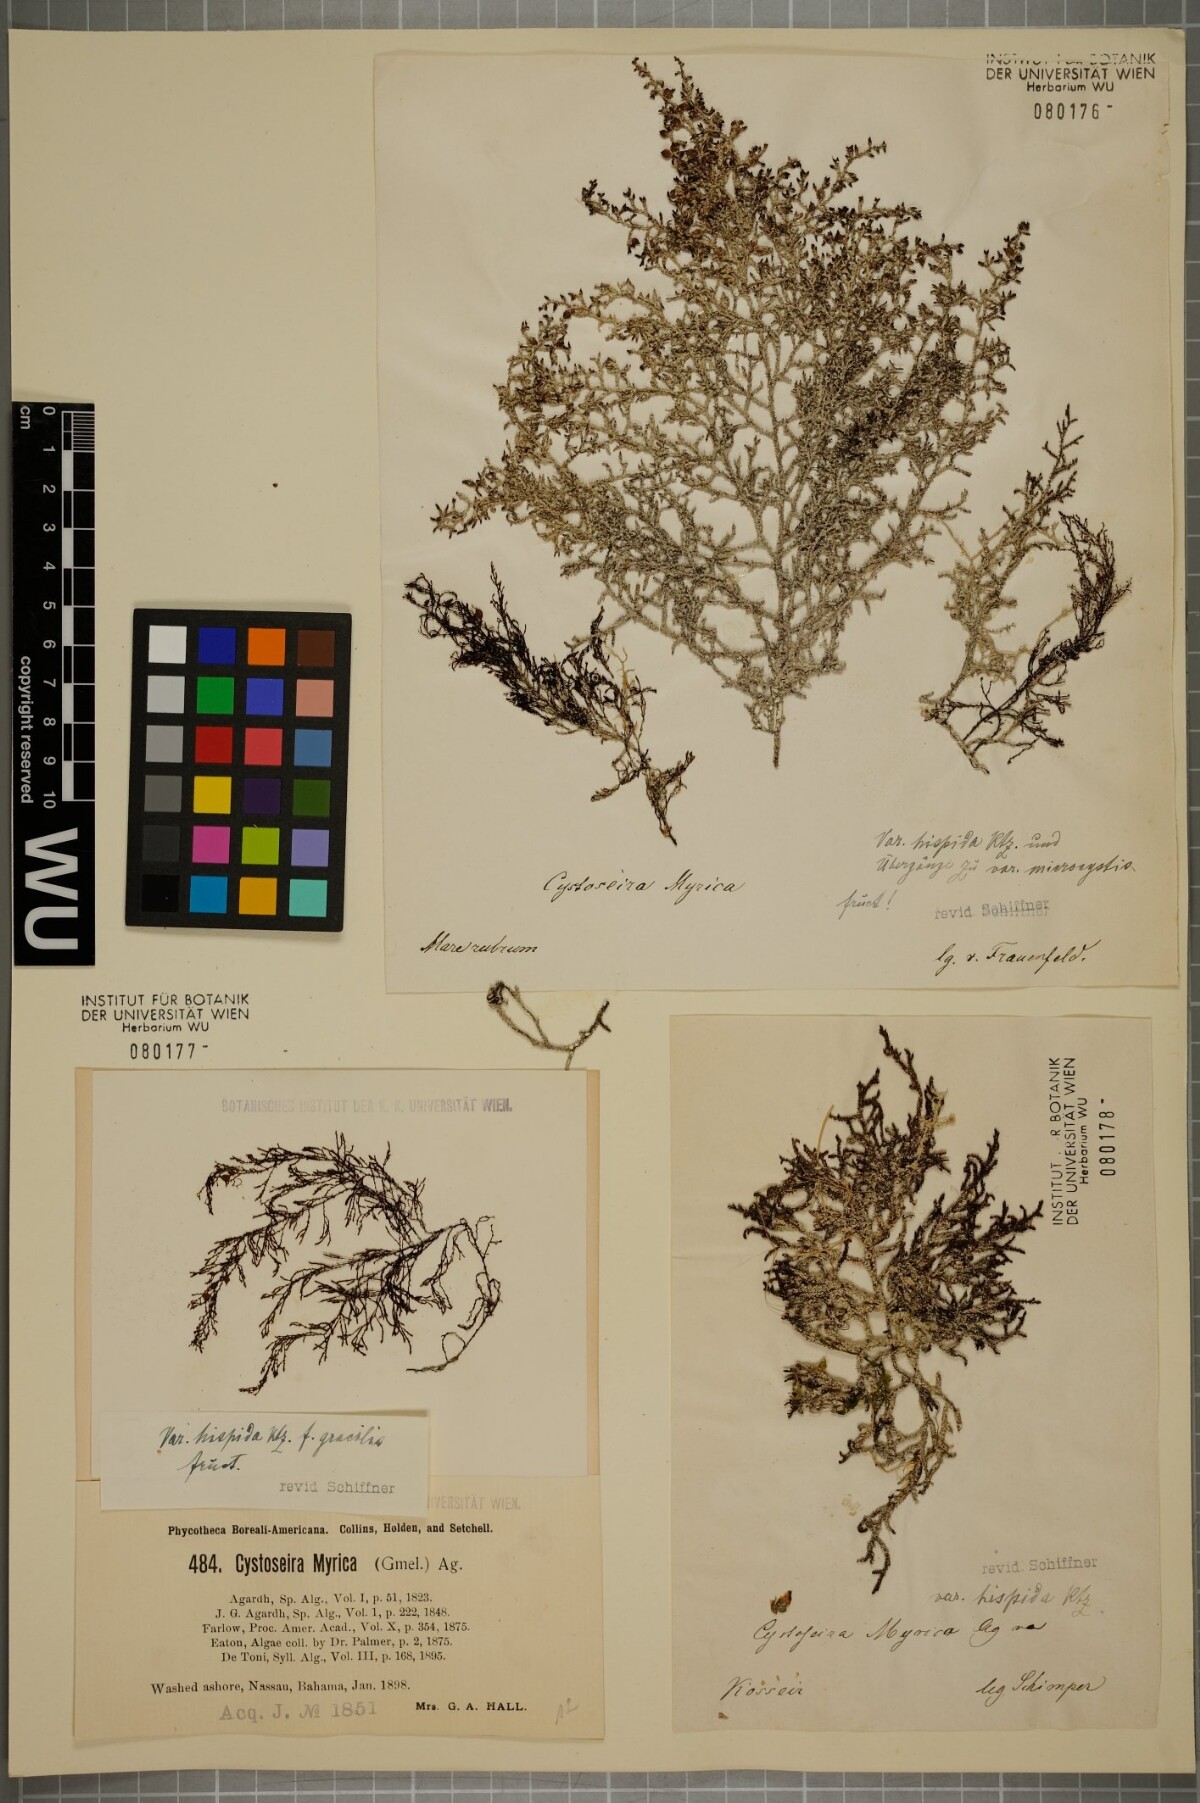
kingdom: Chromista
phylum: Ochrophyta
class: Phaeophyceae
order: Fucales
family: Sargassaceae
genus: Polycladia
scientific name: Polycladia myrica
